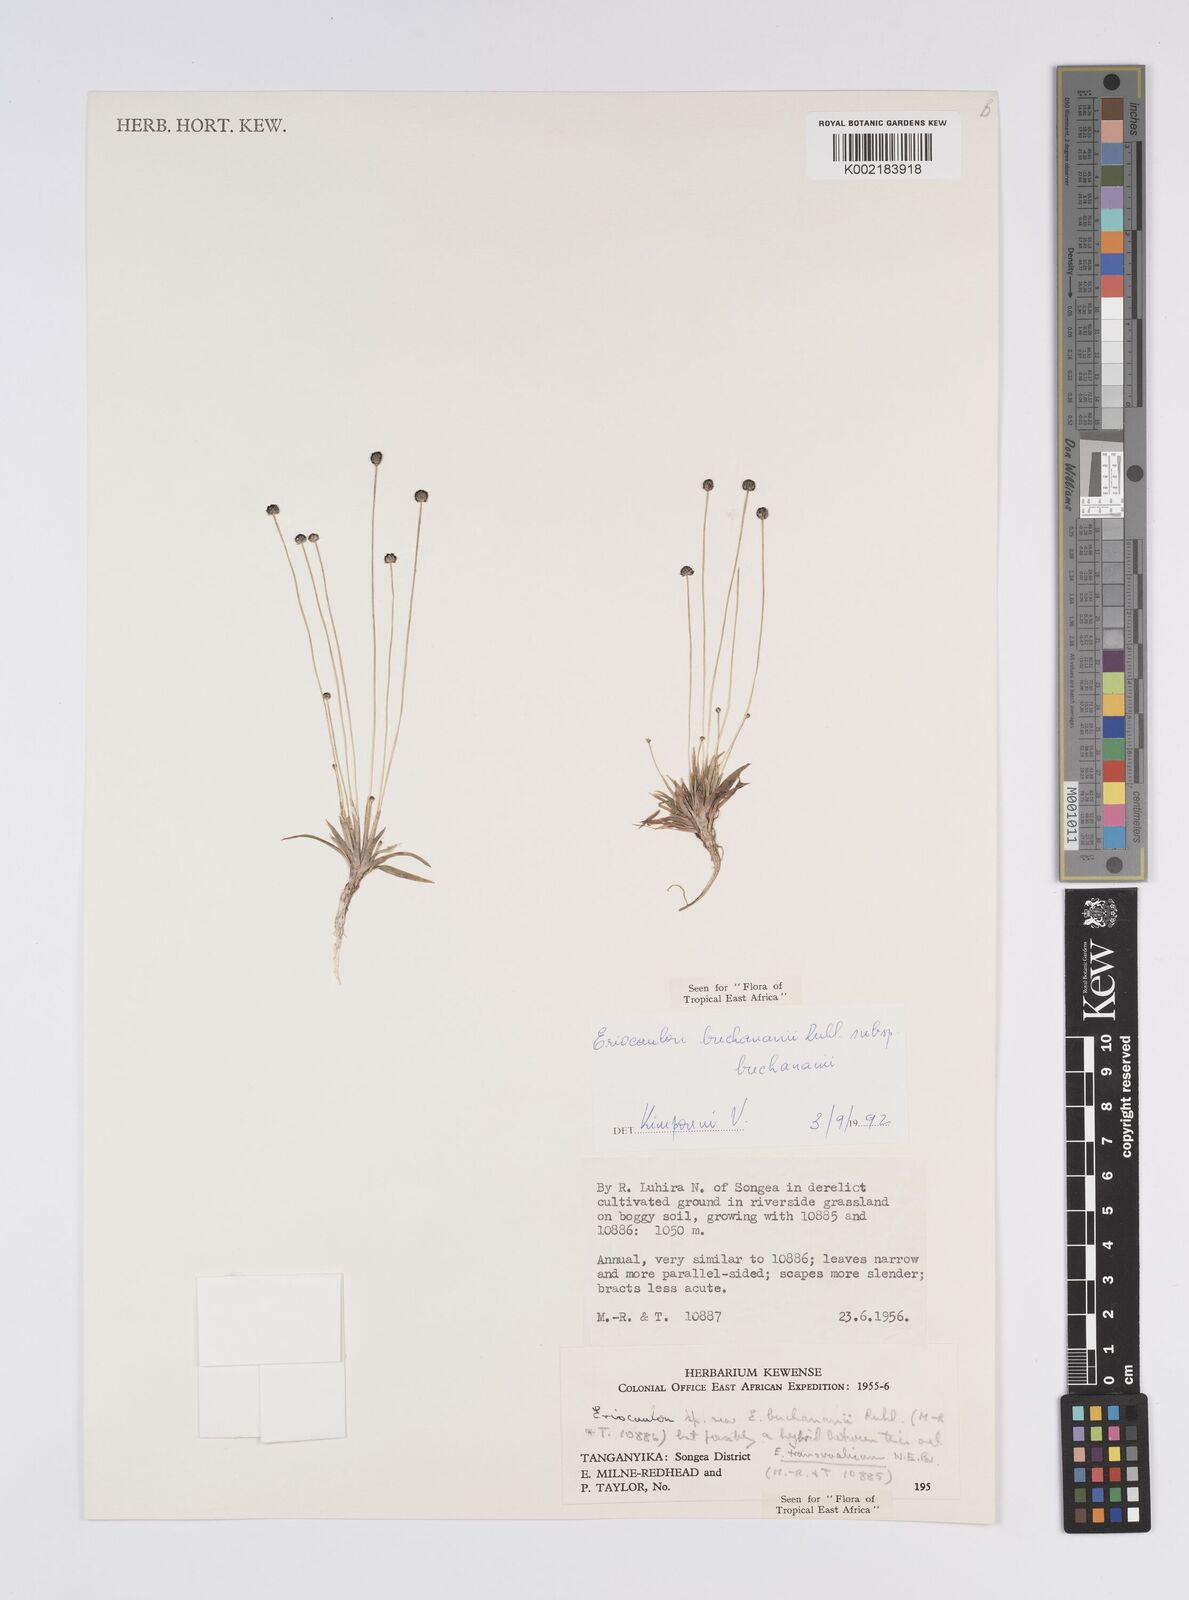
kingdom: Plantae
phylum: Tracheophyta
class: Liliopsida
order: Poales
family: Eriocaulaceae
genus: Eriocaulon
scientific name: Eriocaulon buchananii
